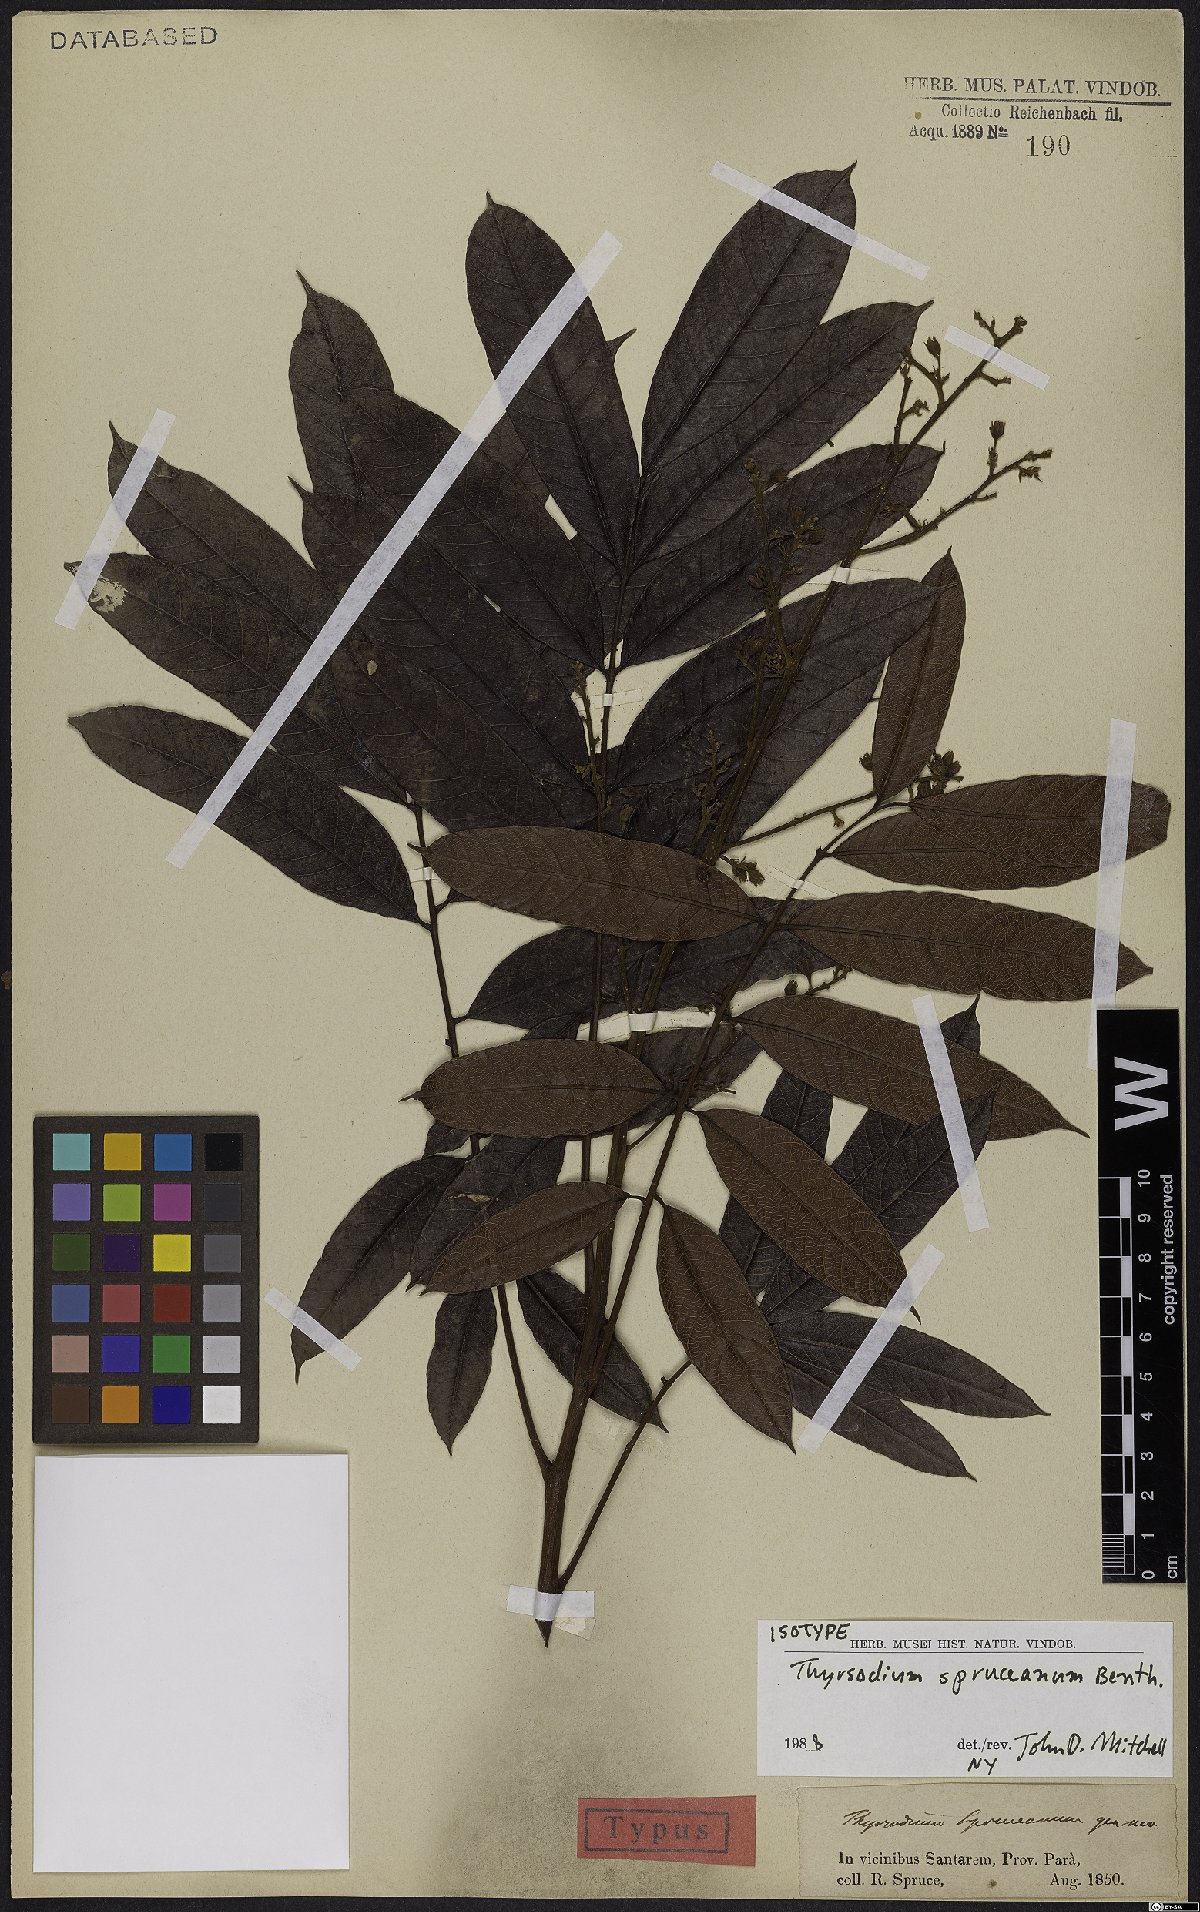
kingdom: Plantae
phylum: Tracheophyta
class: Magnoliopsida
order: Sapindales
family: Anacardiaceae
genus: Thyrsodium
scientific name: Thyrsodium spruceanum
